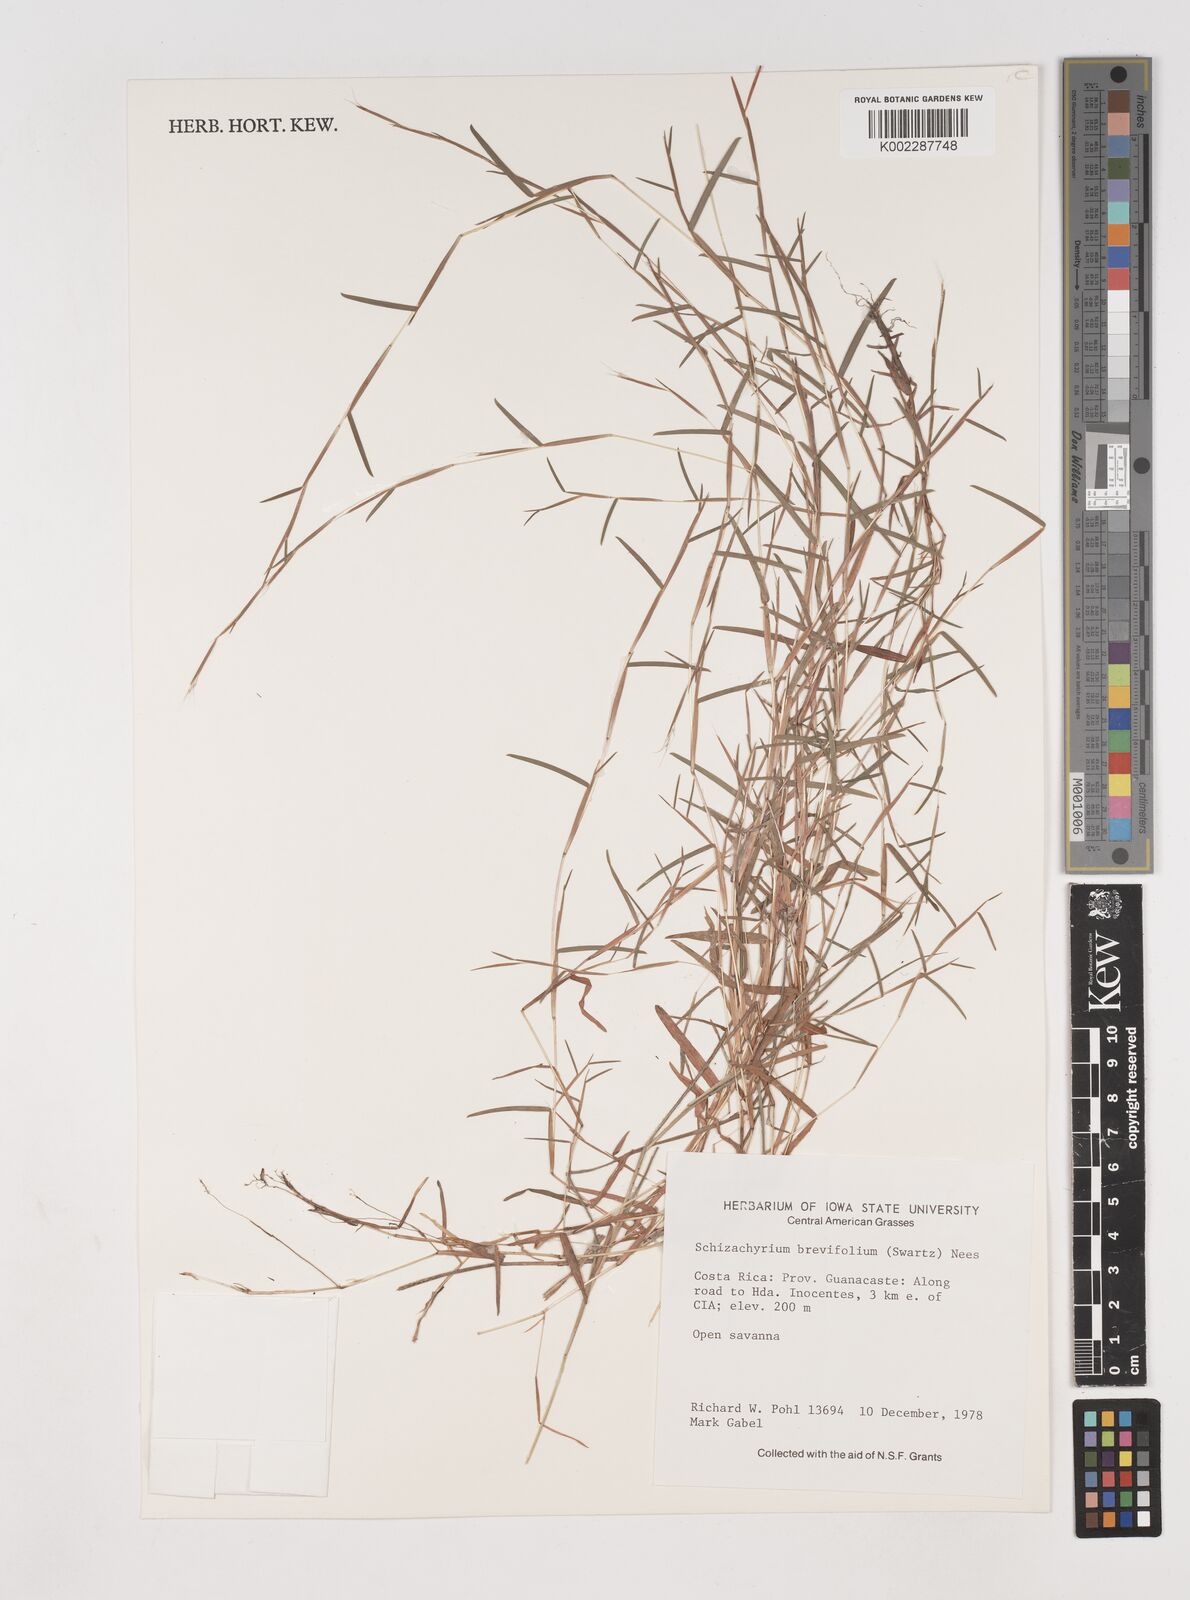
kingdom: Plantae
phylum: Tracheophyta
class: Liliopsida
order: Poales
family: Poaceae
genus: Schizachyrium
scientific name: Schizachyrium brevifolium
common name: Serillo dulce
